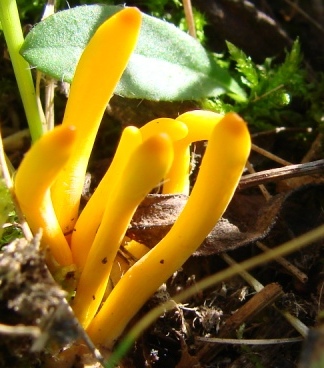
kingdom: Fungi
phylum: Basidiomycota
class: Agaricomycetes
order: Agaricales
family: Clavariaceae
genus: Clavulinopsis
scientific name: Clavulinopsis helvola
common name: orangegul køllesvamp
